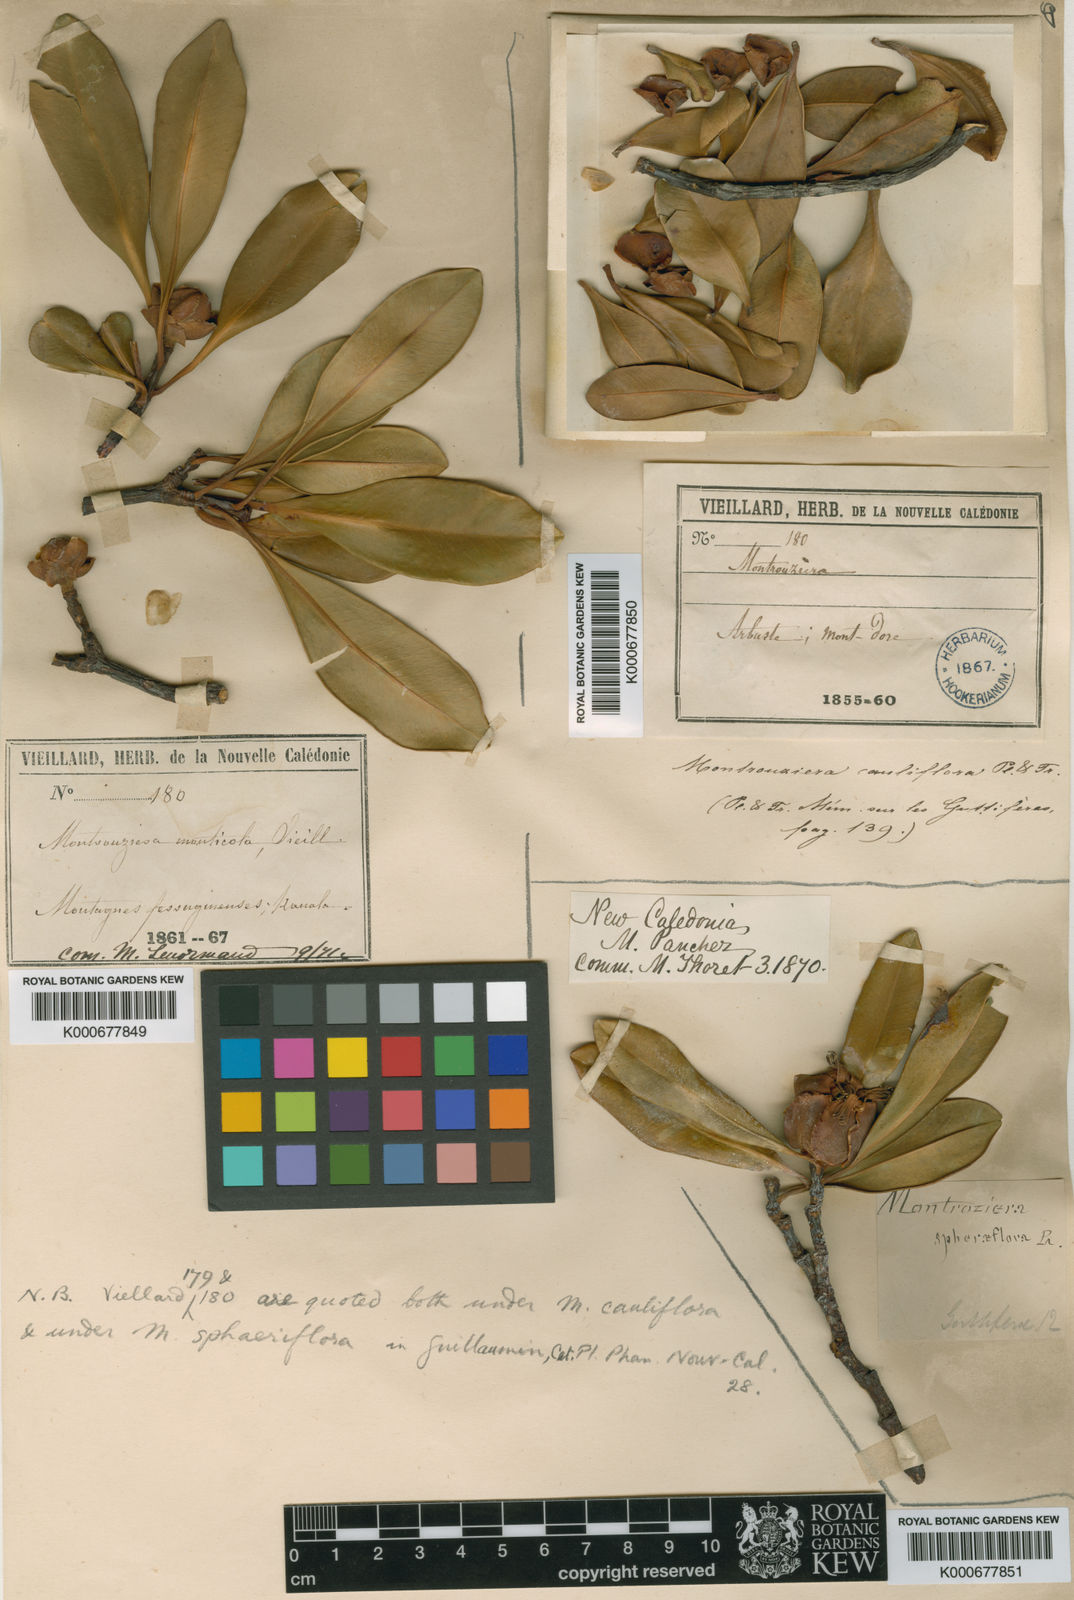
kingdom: Plantae
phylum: Tracheophyta
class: Magnoliopsida
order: Malpighiales
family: Clusiaceae
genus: Montrouziera
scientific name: Montrouziera sphaeroidea
